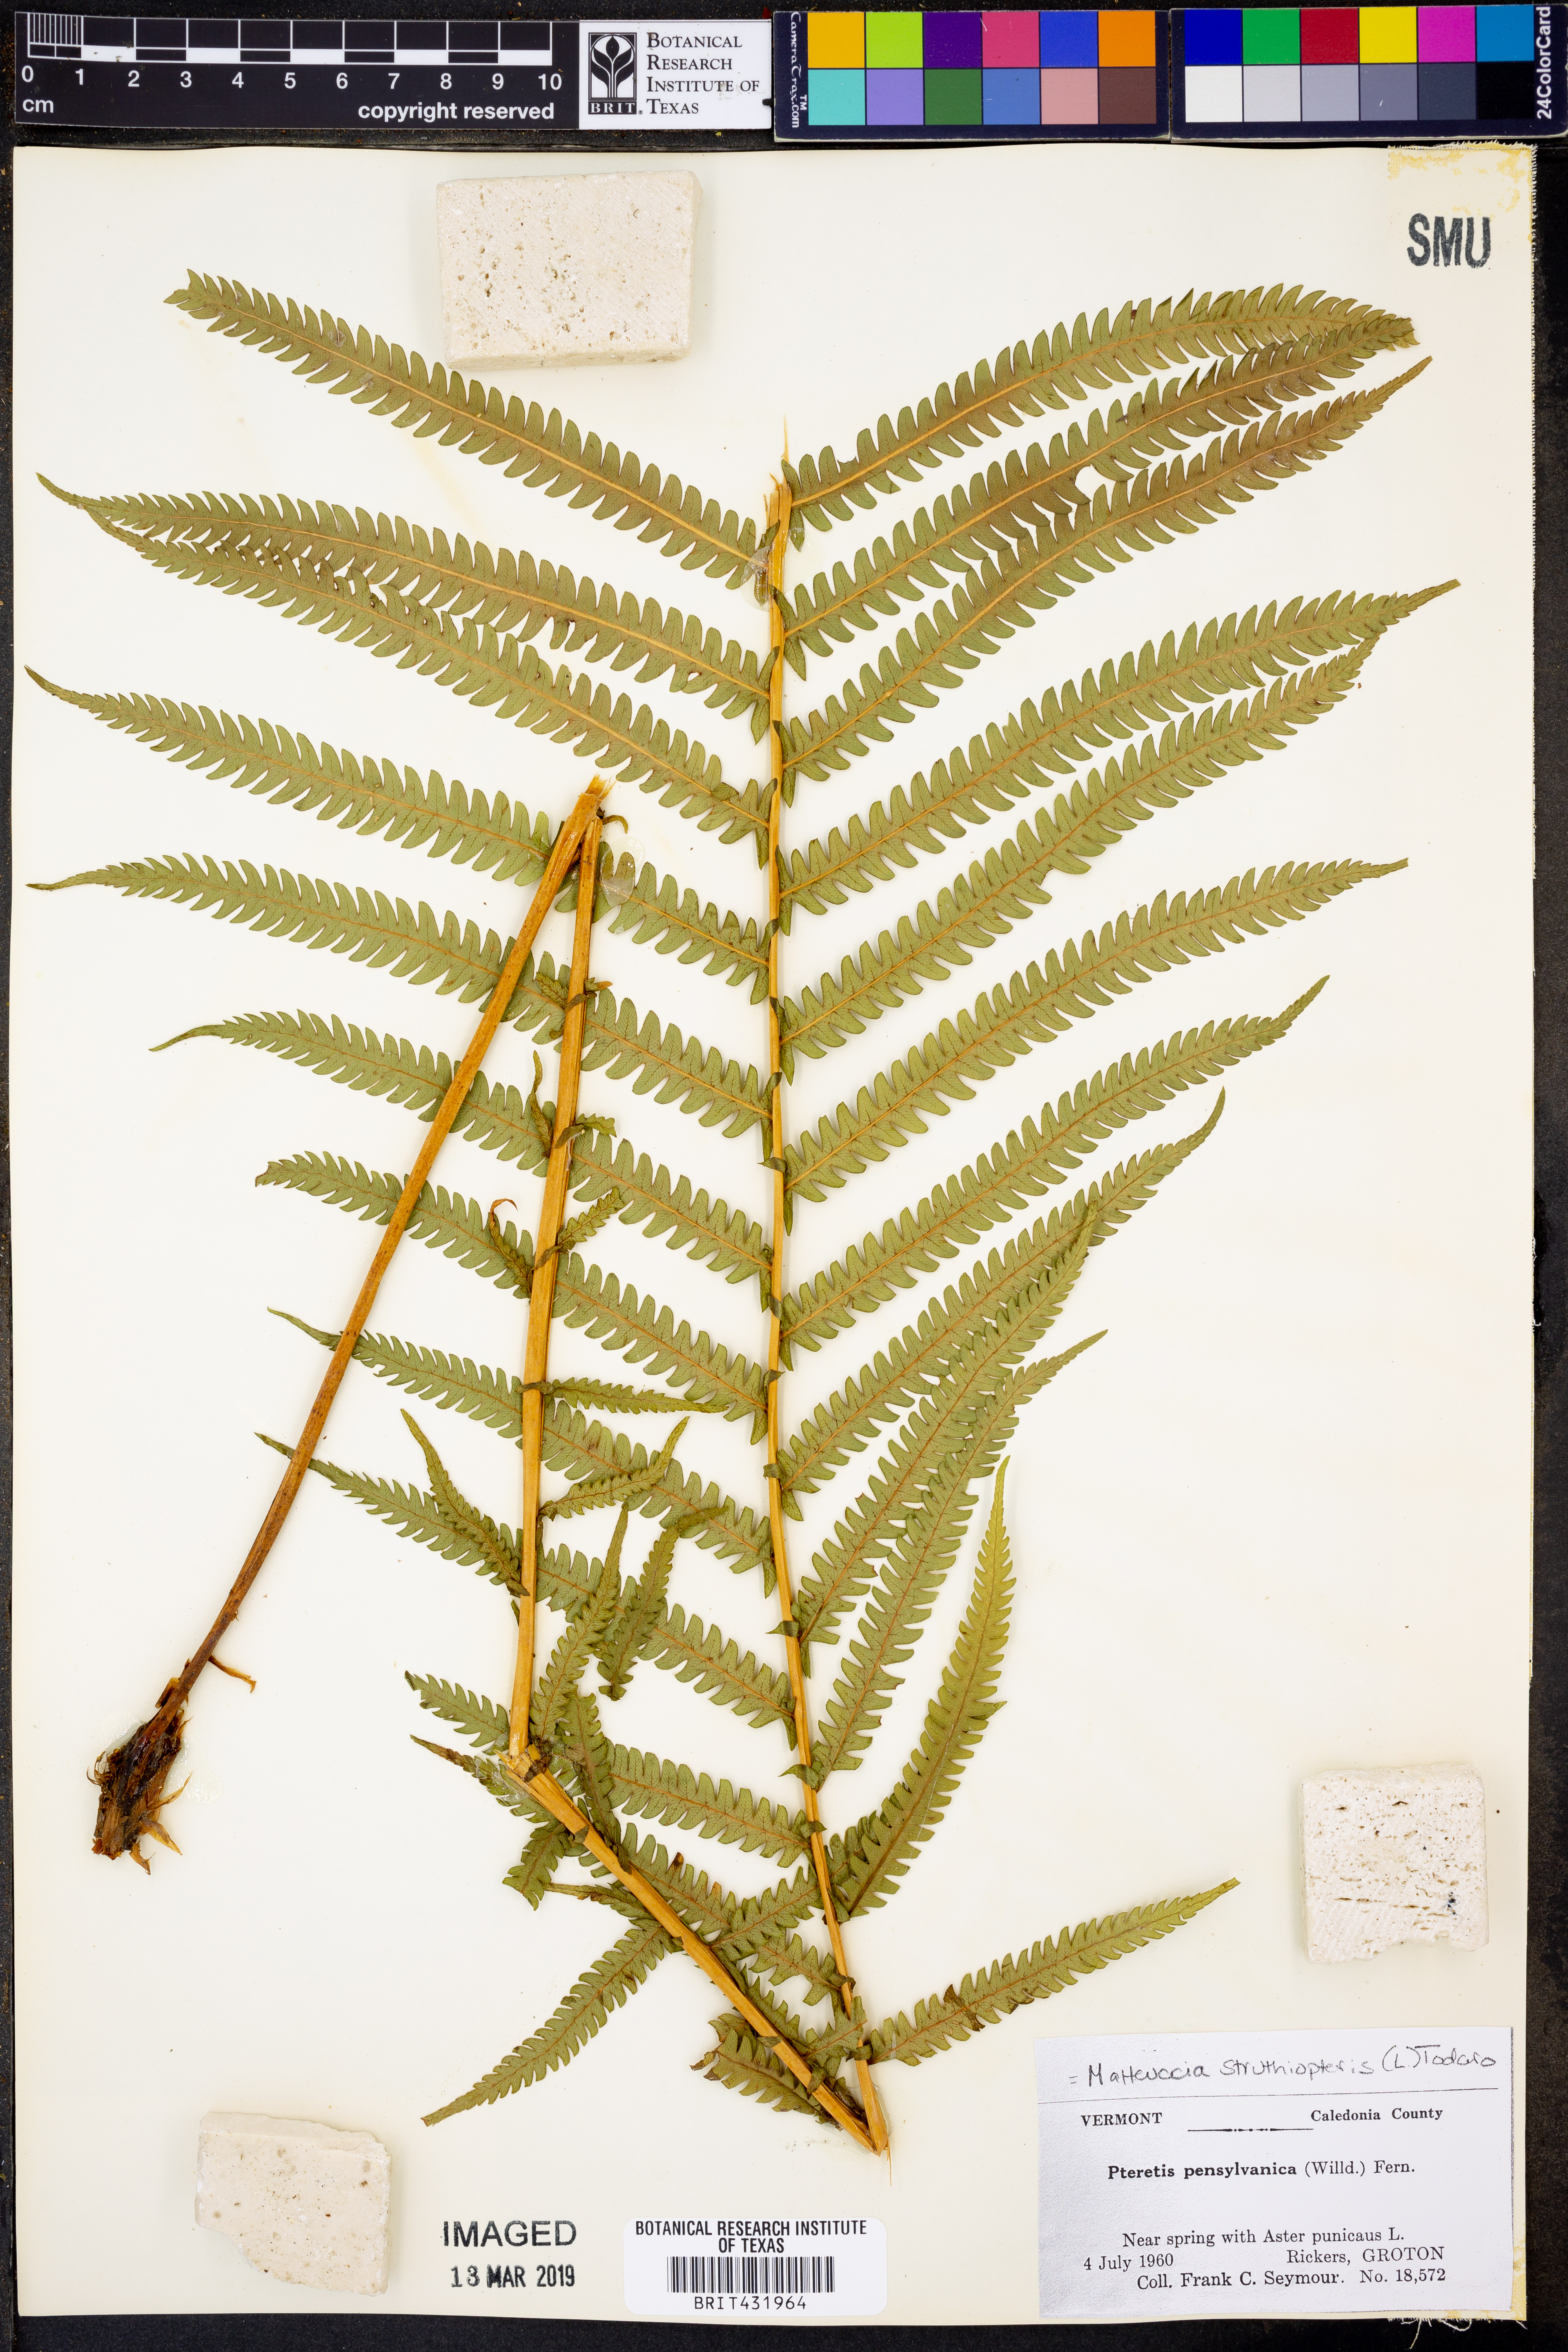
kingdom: Plantae
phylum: Tracheophyta
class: Polypodiopsida
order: Polypodiales
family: Onocleaceae
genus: Matteuccia
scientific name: Matteuccia struthiopteris
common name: Ostrich fern
